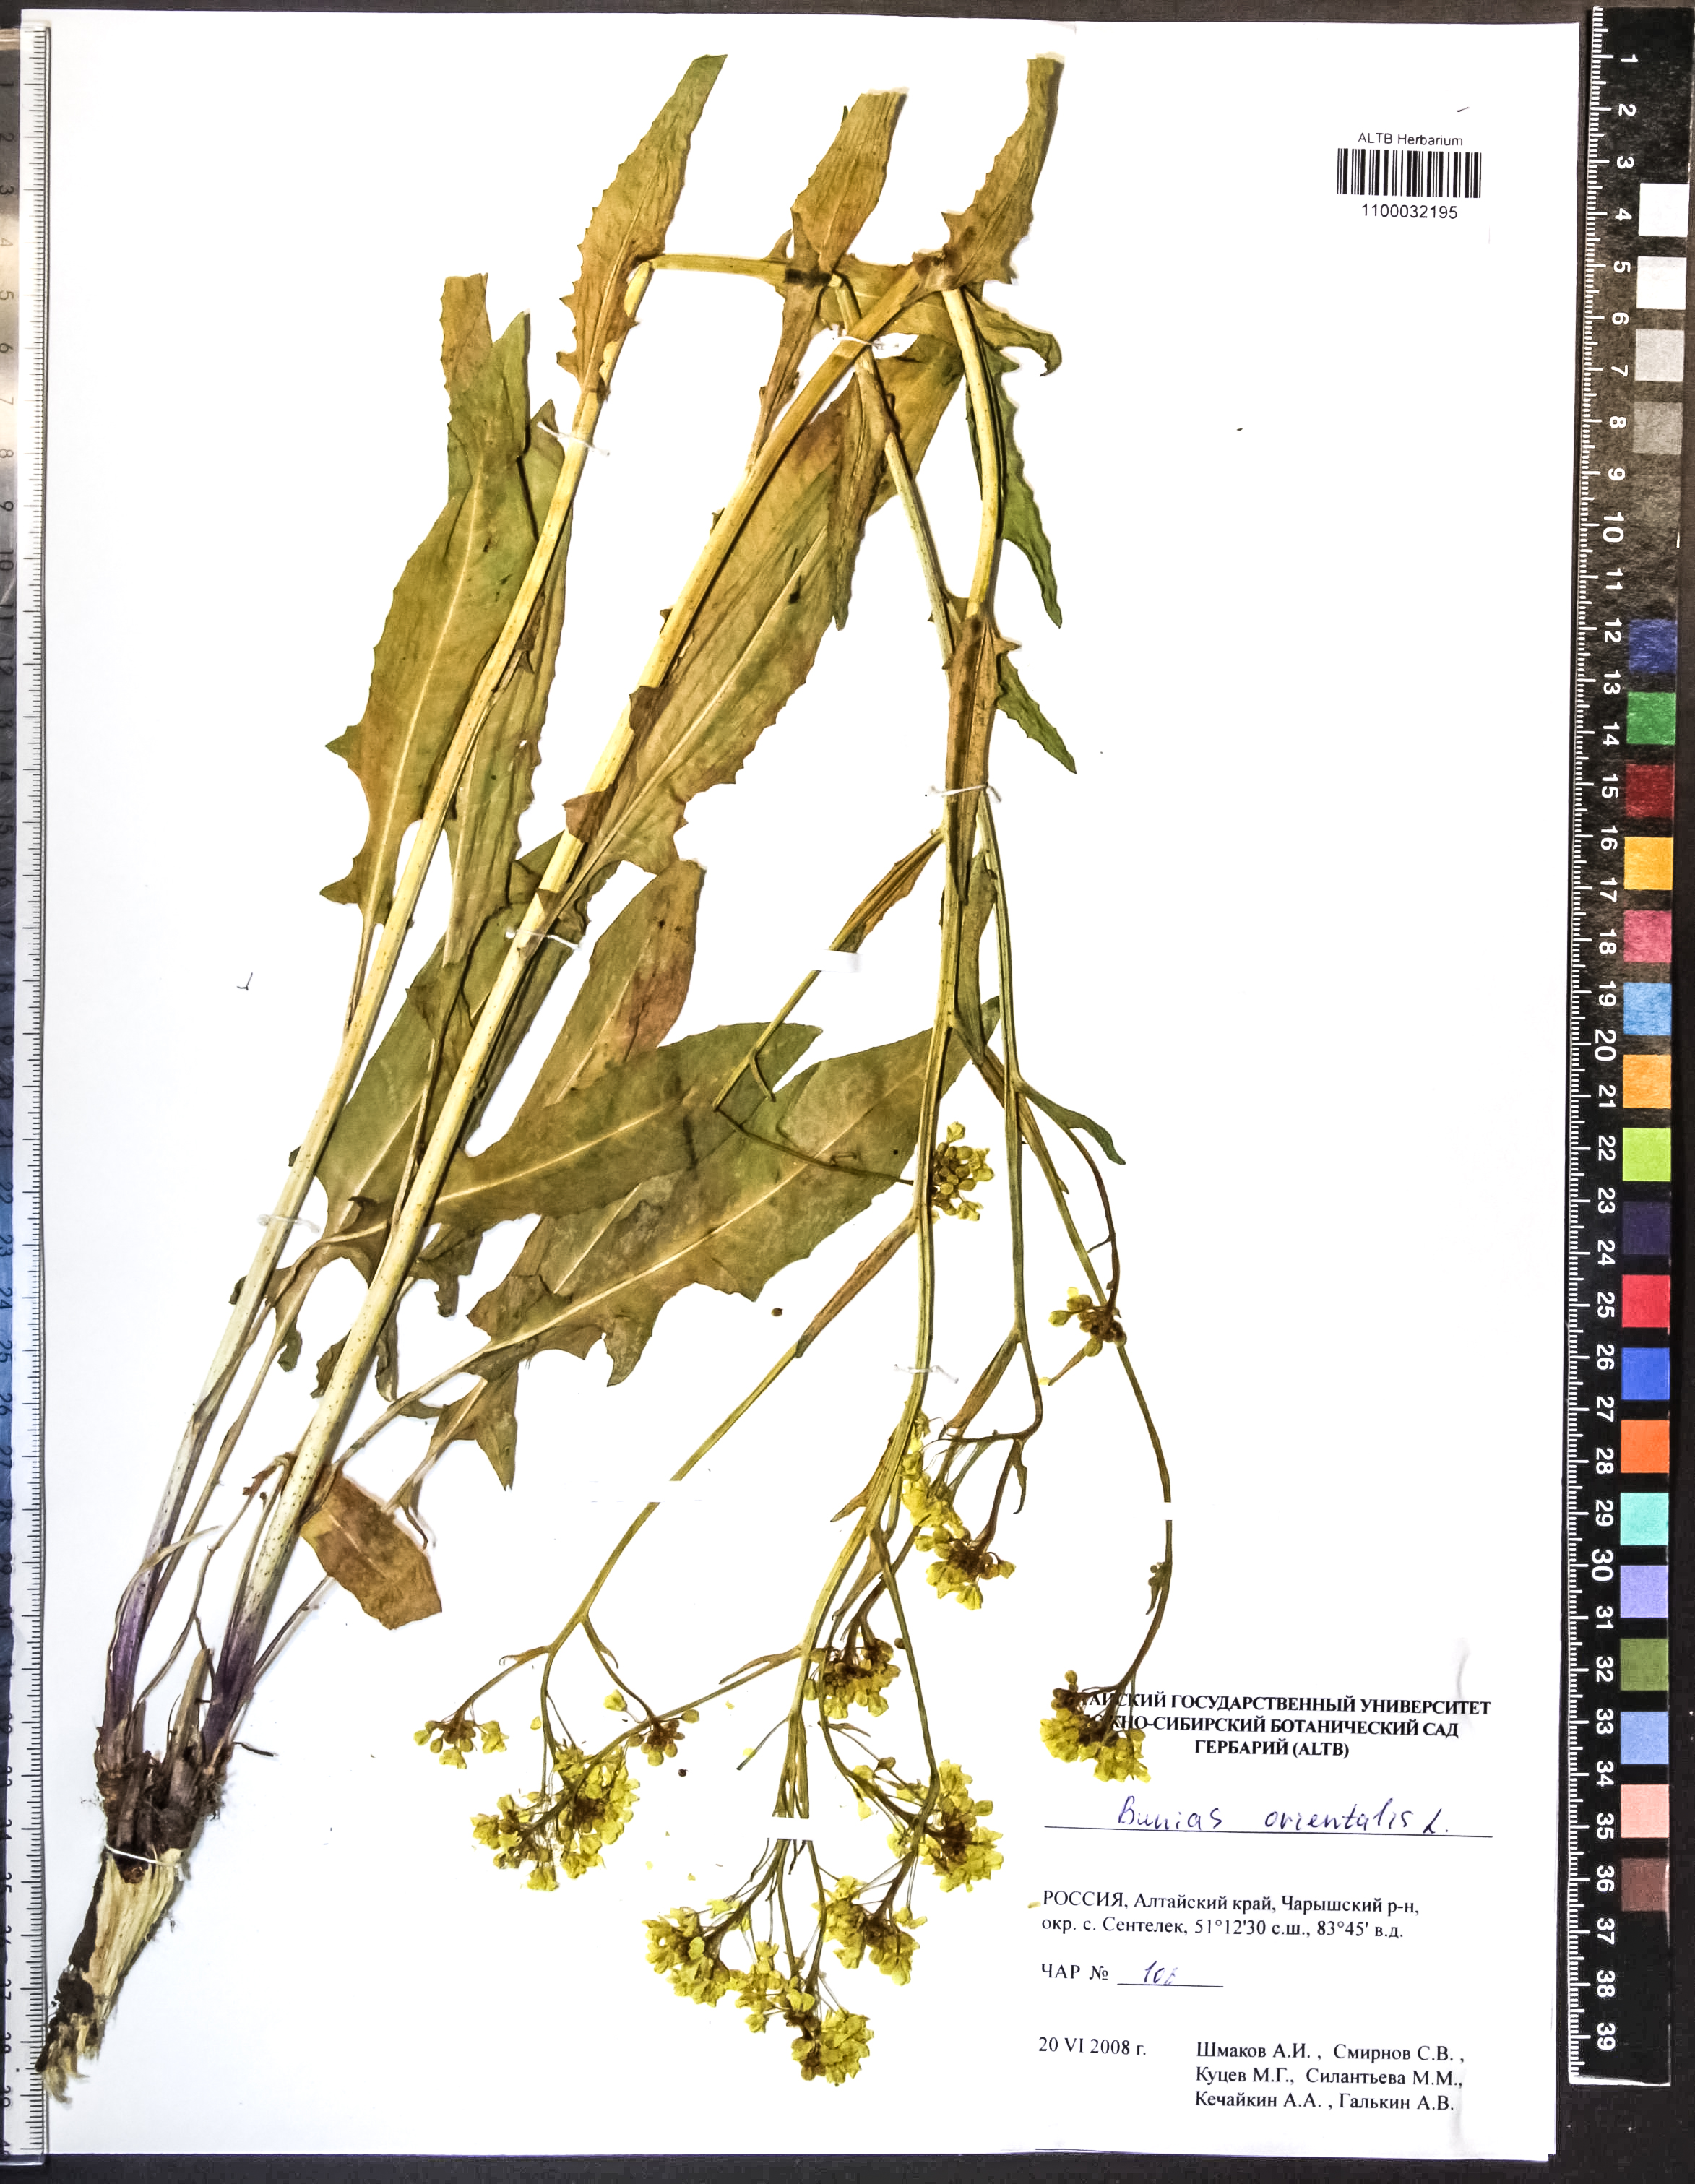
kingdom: Plantae
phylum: Tracheophyta
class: Magnoliopsida
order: Brassicales
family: Brassicaceae
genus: Bunias
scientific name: Bunias orientalis
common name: Warty-cabbage
